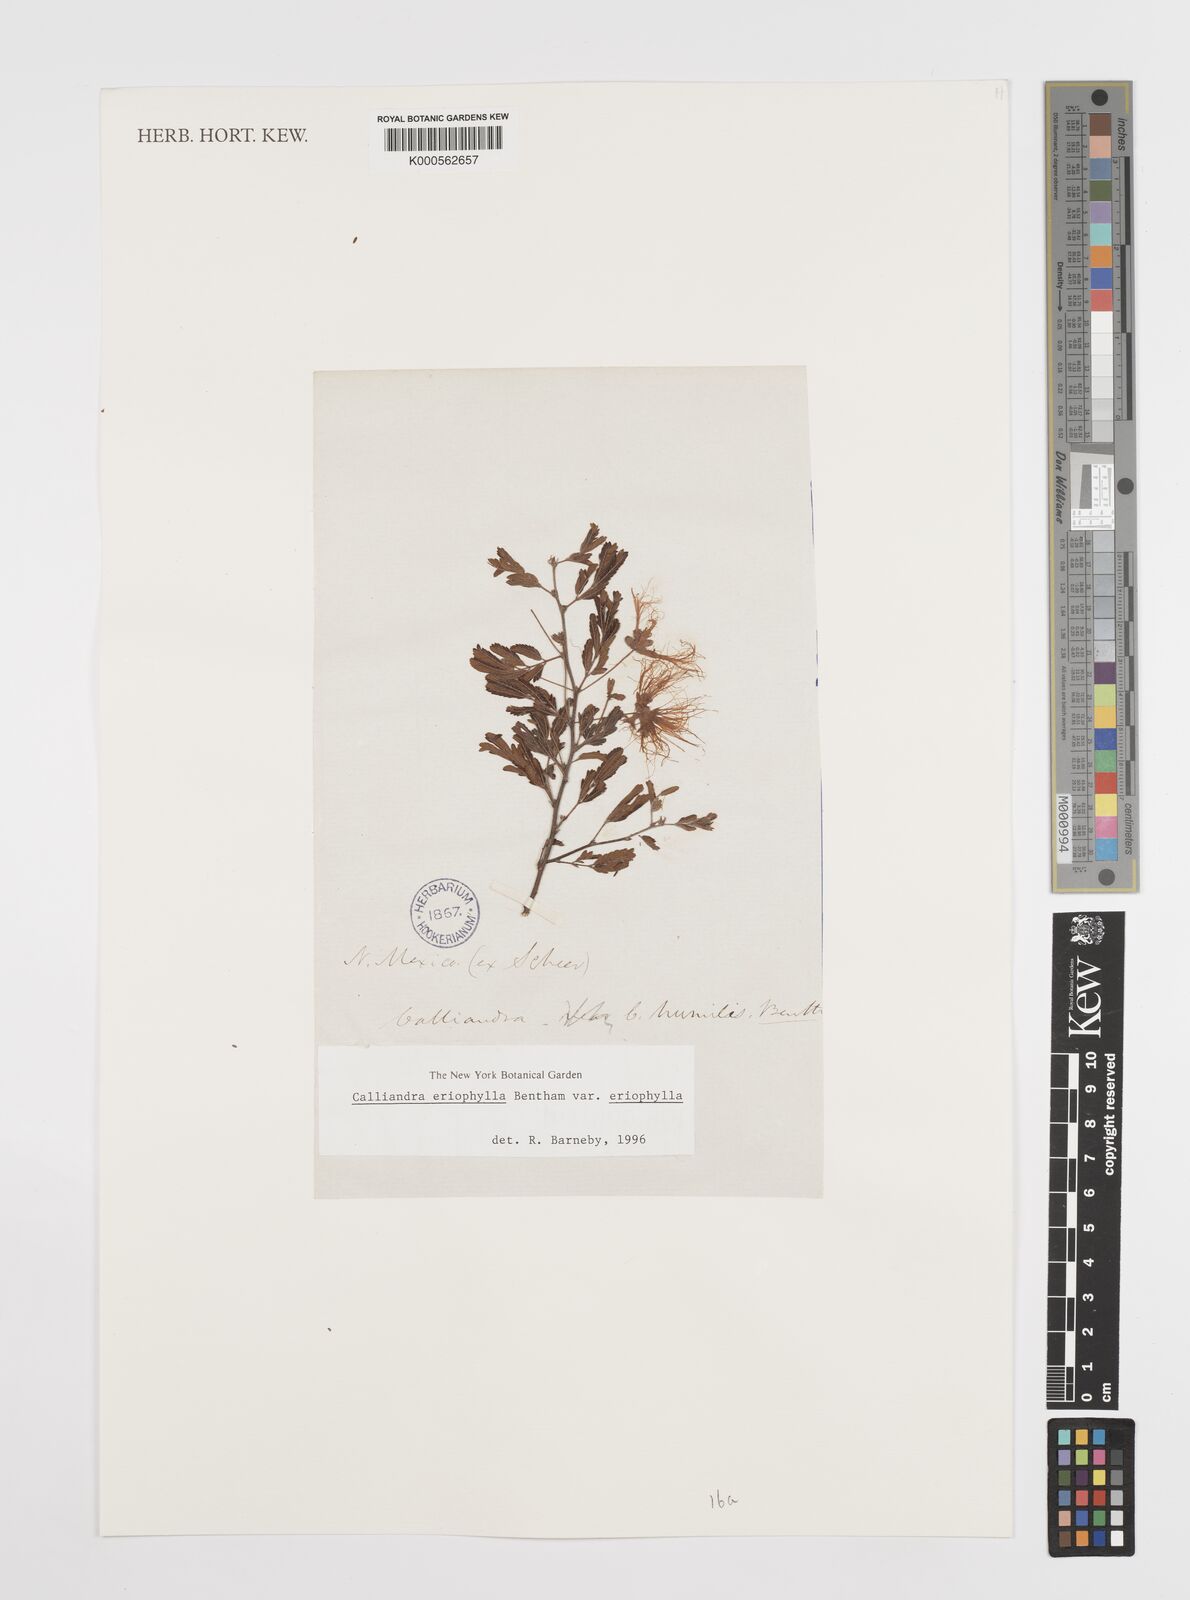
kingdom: Plantae
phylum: Tracheophyta
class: Magnoliopsida
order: Fabales
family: Fabaceae
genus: Calliandra
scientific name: Calliandra eriophylla
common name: Fairy-duster
